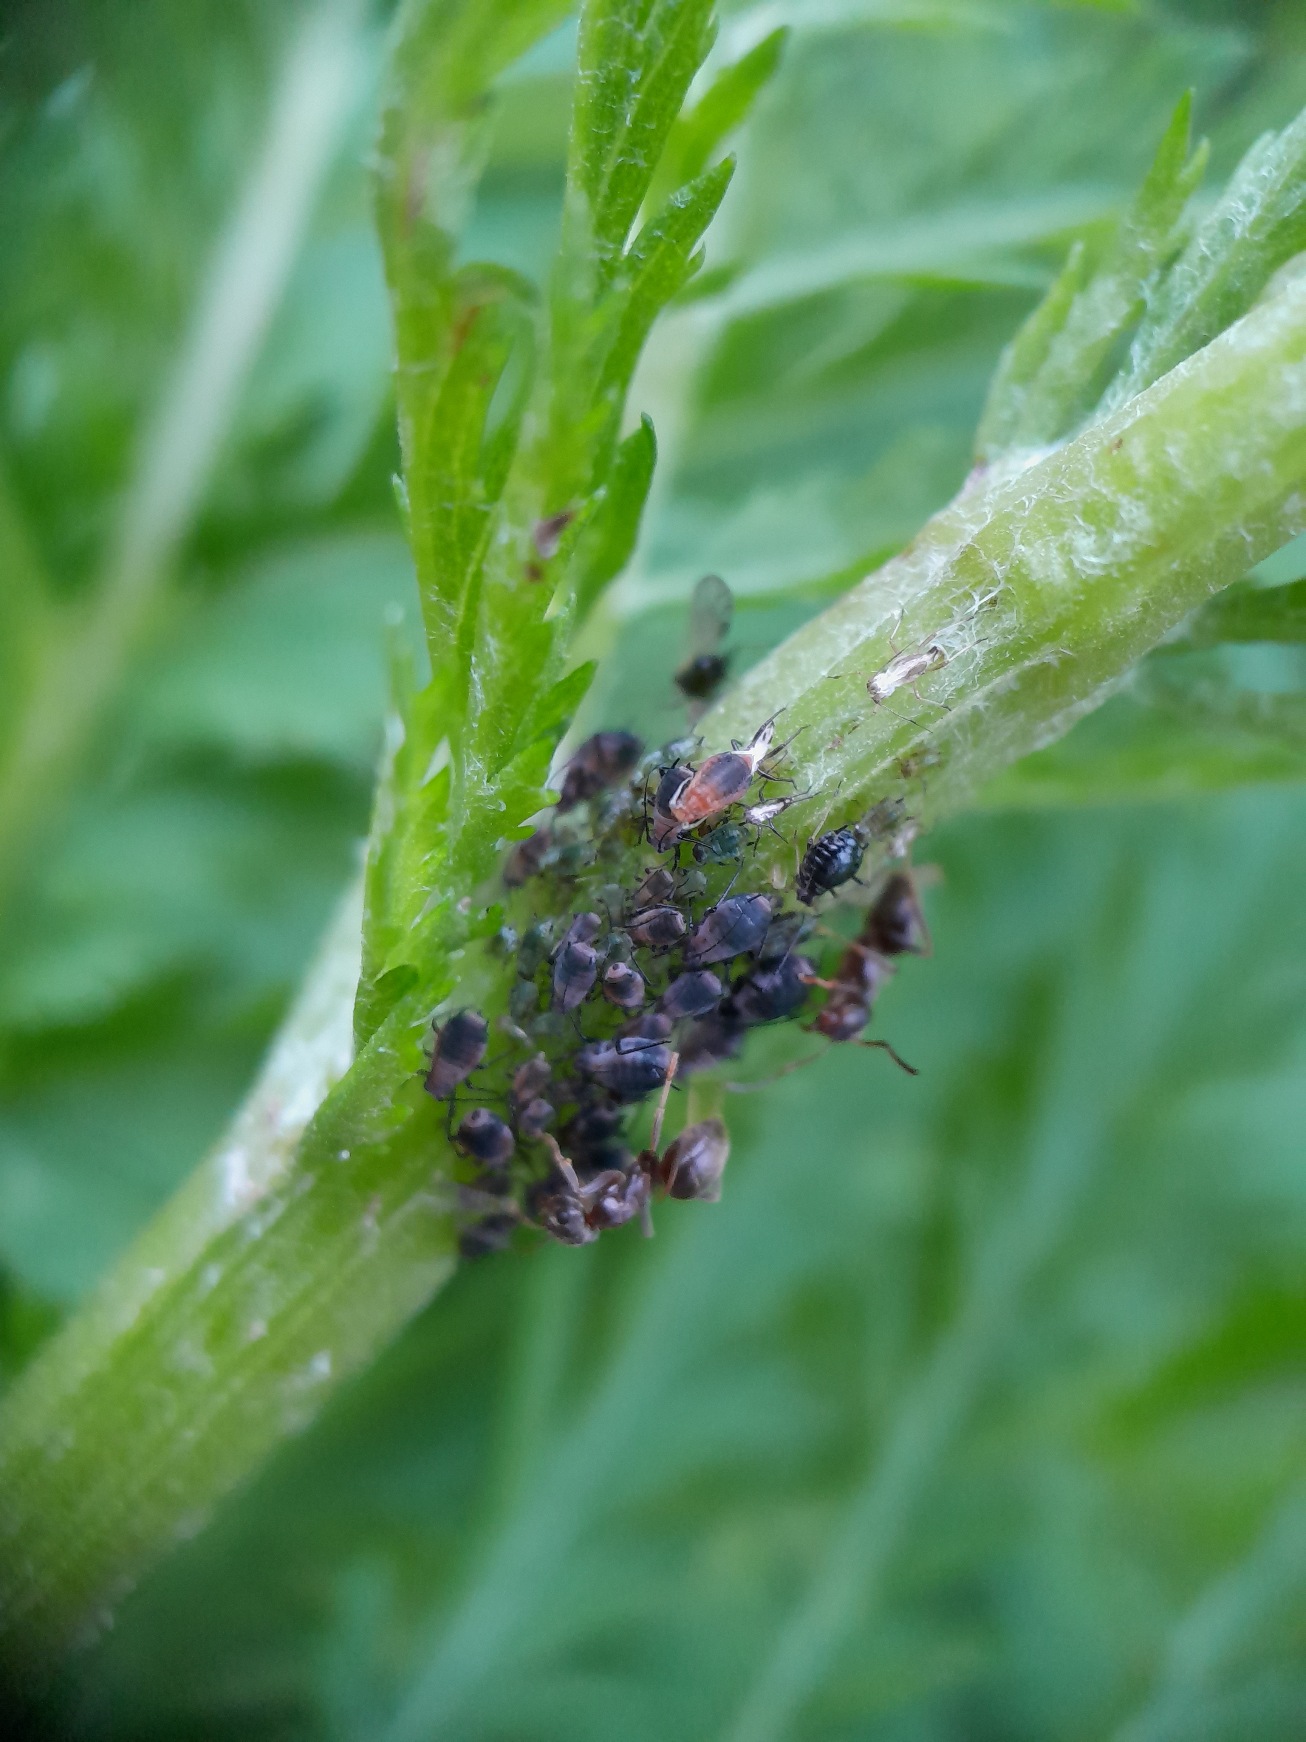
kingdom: Animalia
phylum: Arthropoda
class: Insecta
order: Hemiptera
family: Aphididae
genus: Metopeurum
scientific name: Metopeurum fuscoviride
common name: Mørk rejnfanbladlus
